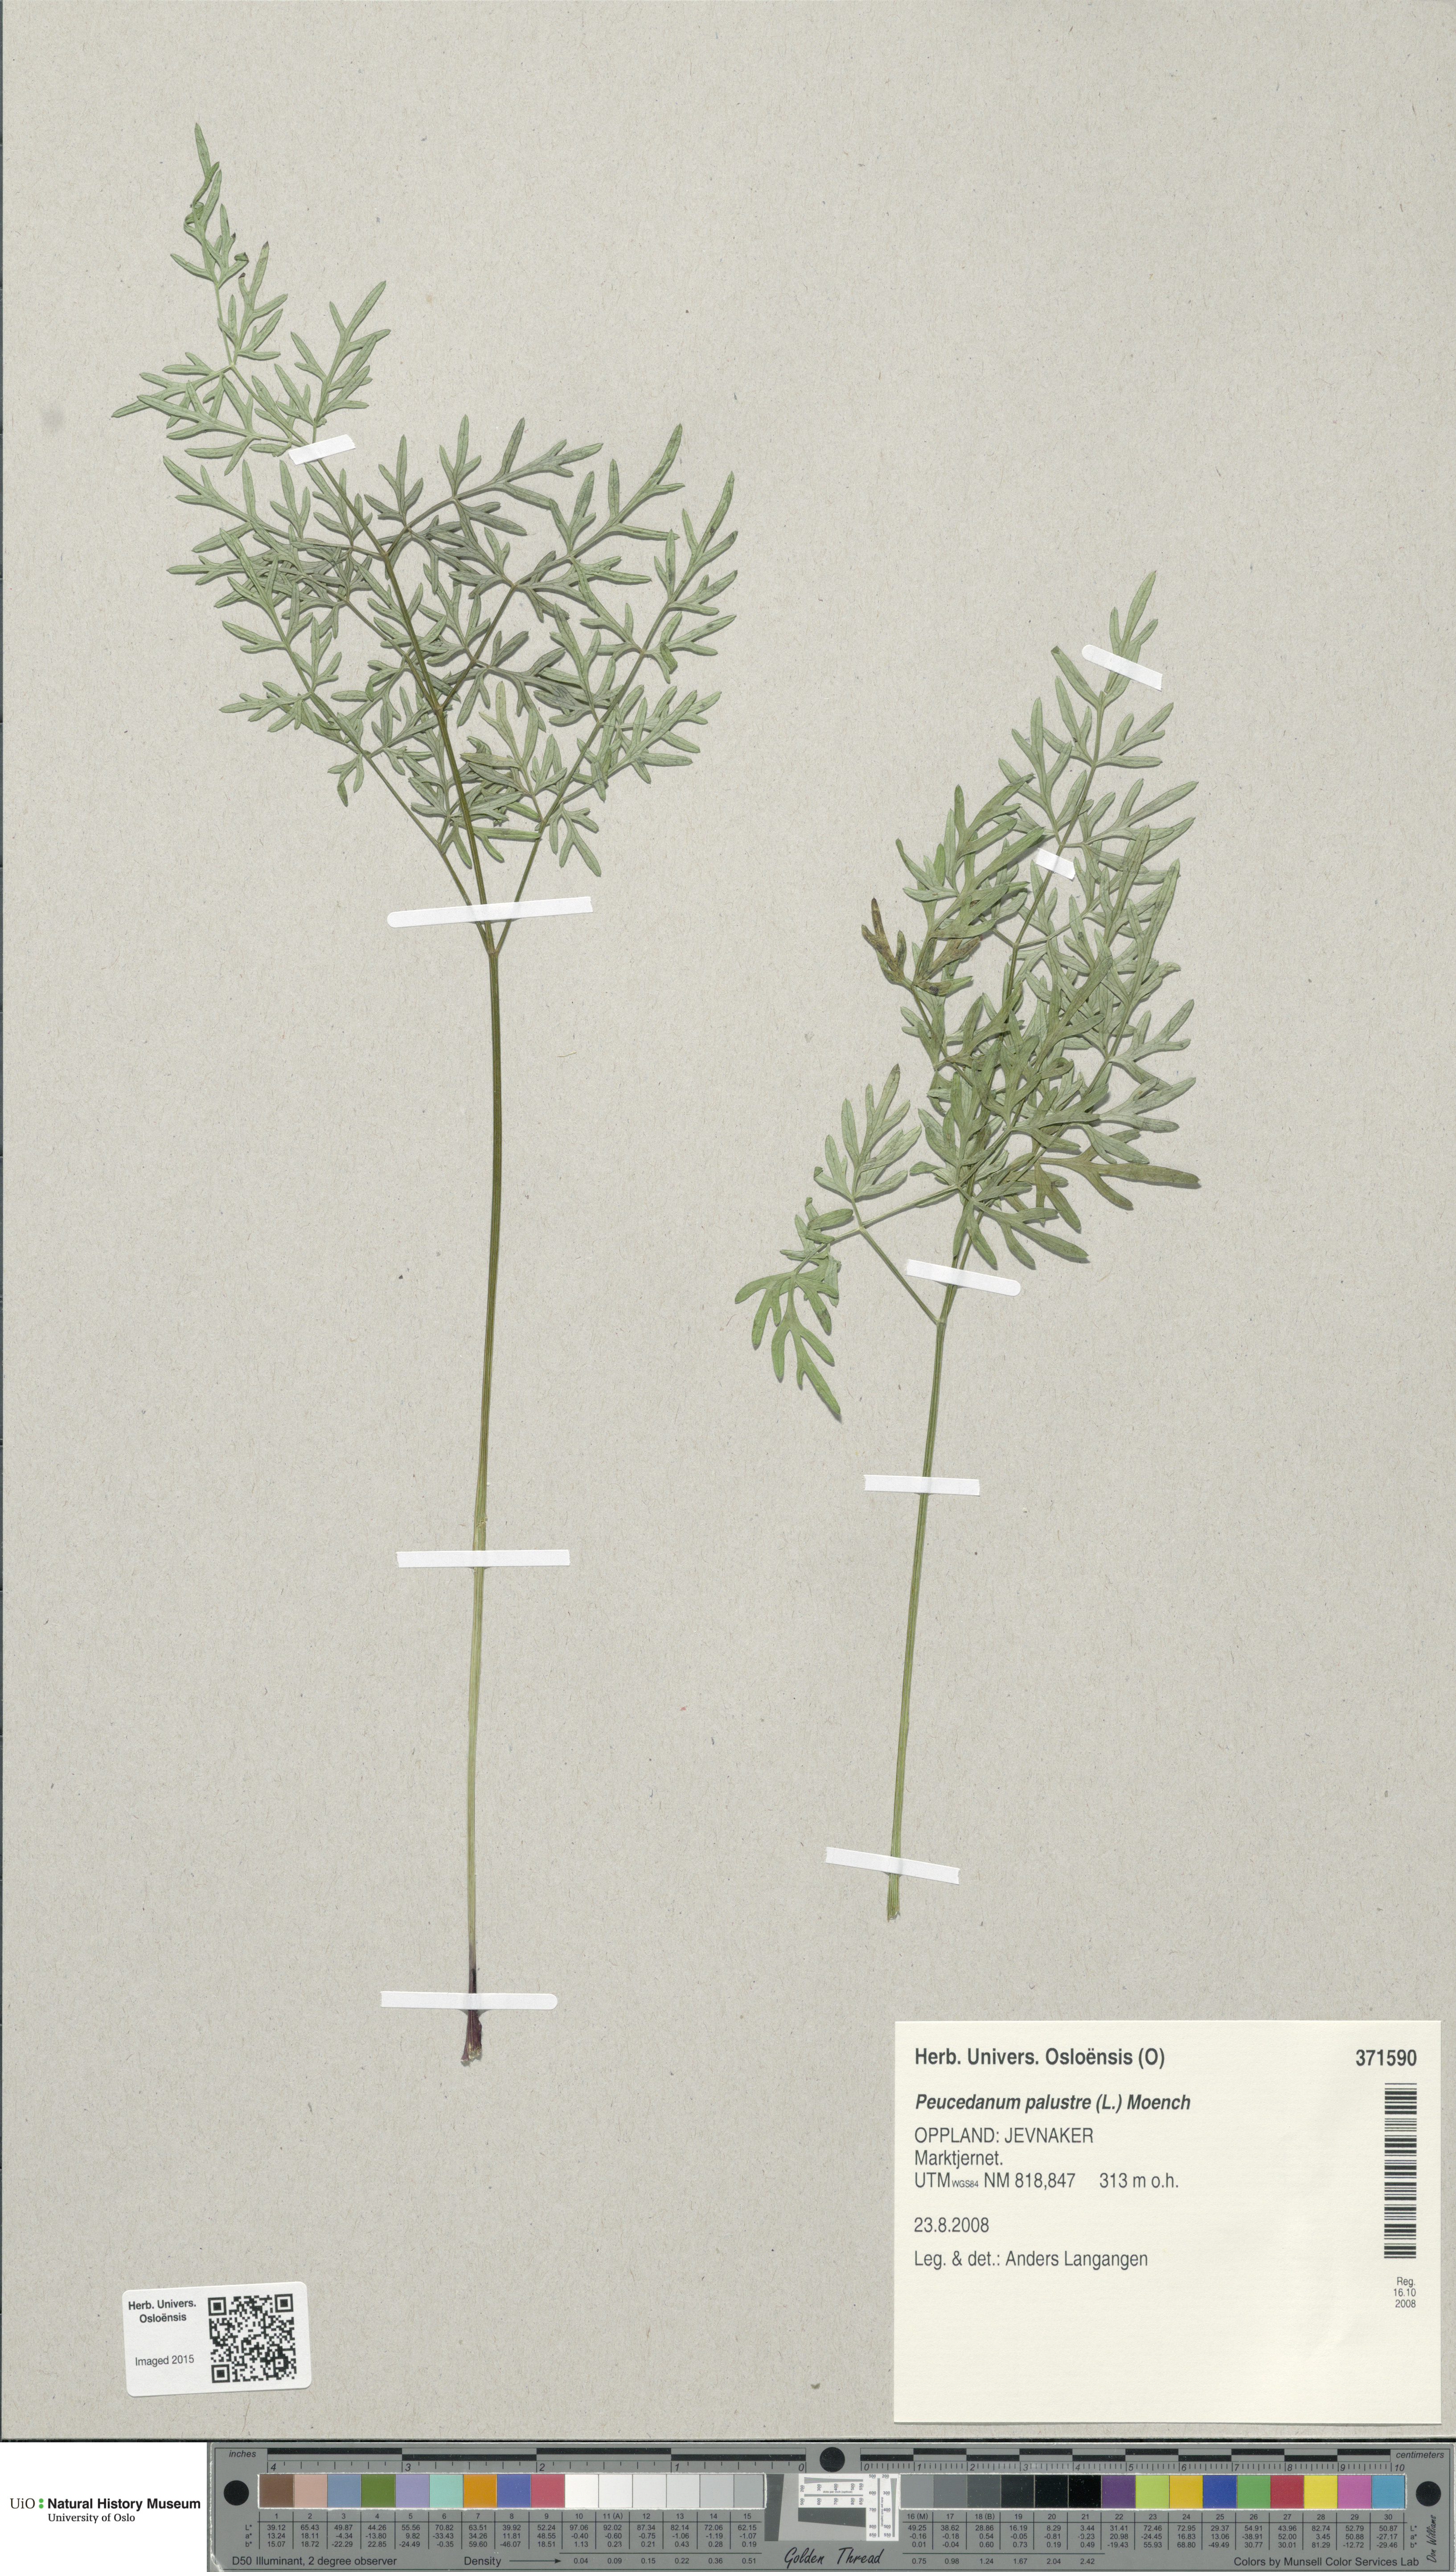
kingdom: Plantae
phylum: Tracheophyta
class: Magnoliopsida
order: Apiales
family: Apiaceae
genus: Thysselinum
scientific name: Thysselinum palustre
